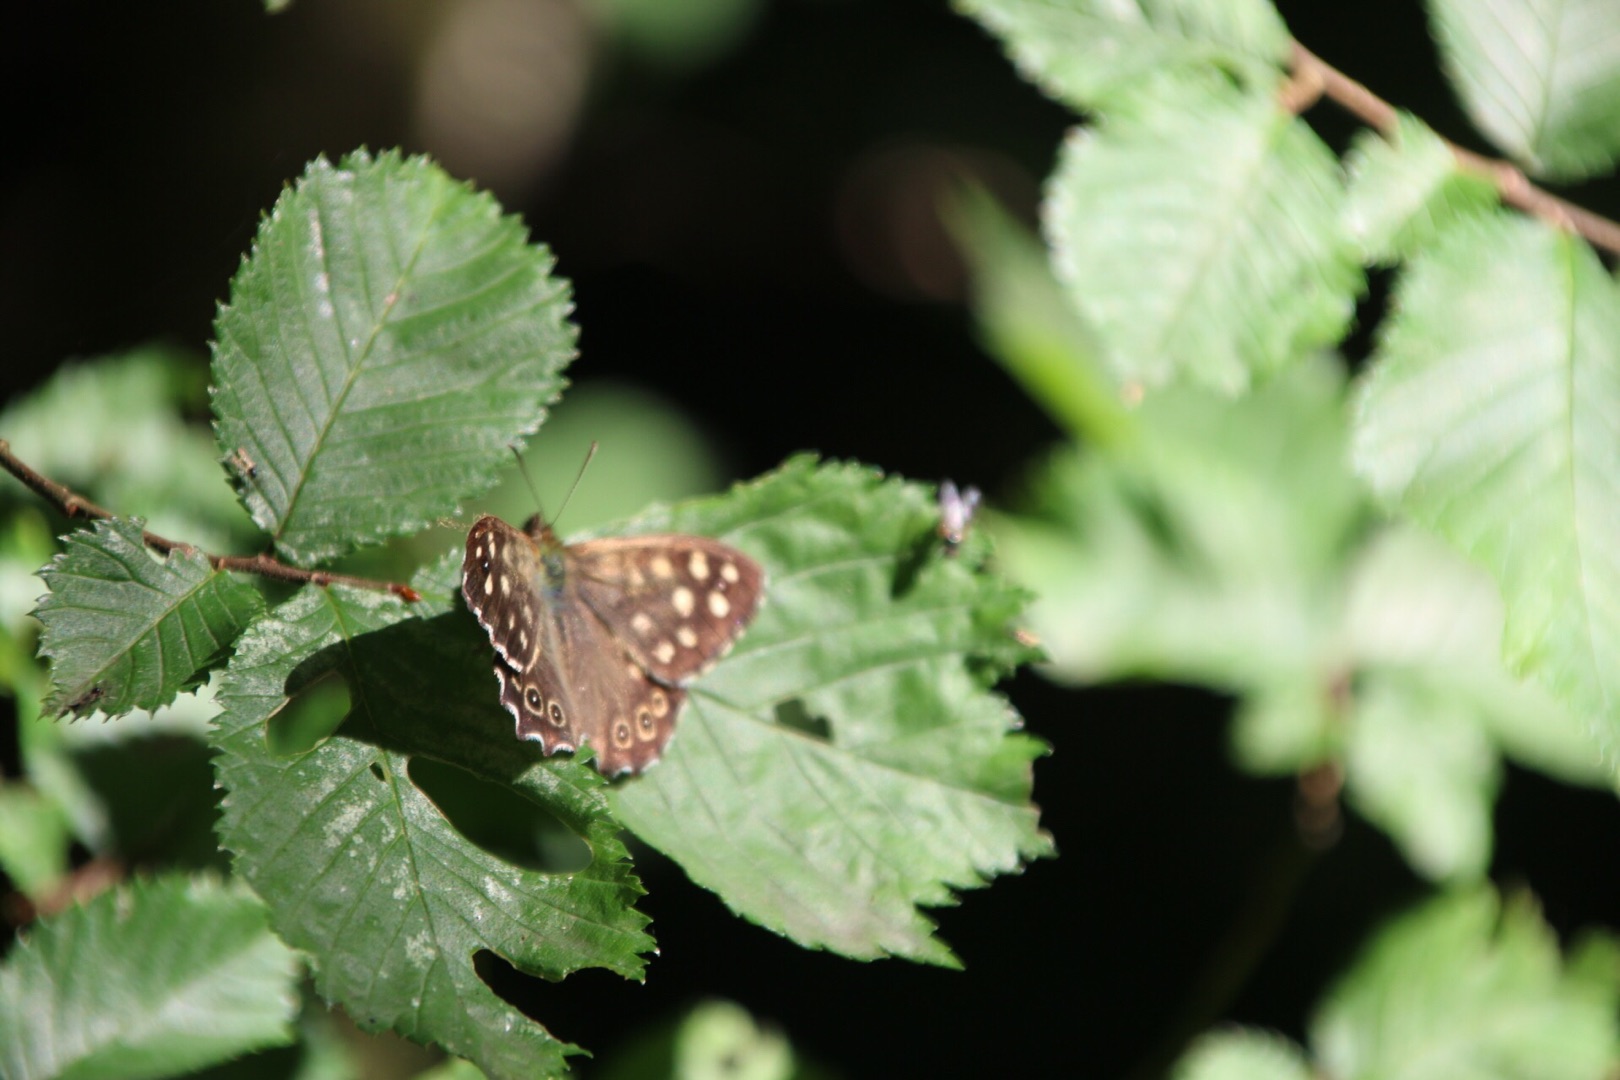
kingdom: Animalia
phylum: Arthropoda
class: Insecta
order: Lepidoptera
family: Nymphalidae
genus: Pararge
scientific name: Pararge aegeria
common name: Skovrandøje
